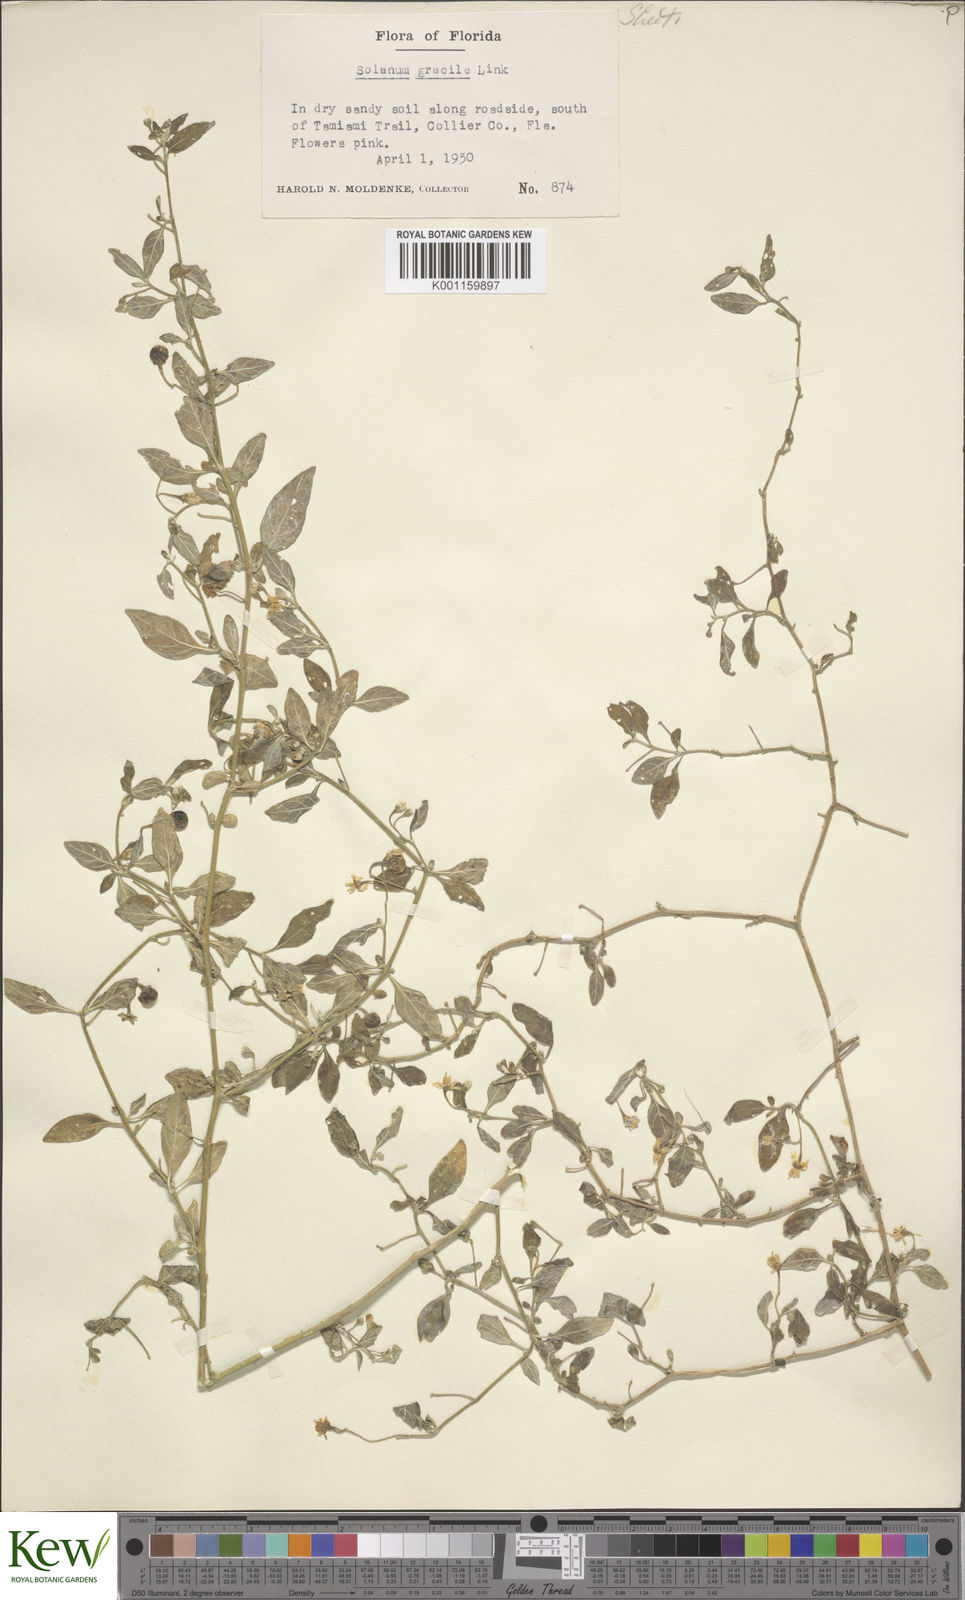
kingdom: Plantae
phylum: Tracheophyta
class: Magnoliopsida
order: Solanales
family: Solanaceae
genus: Solanum
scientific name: Solanum pseudogracile
